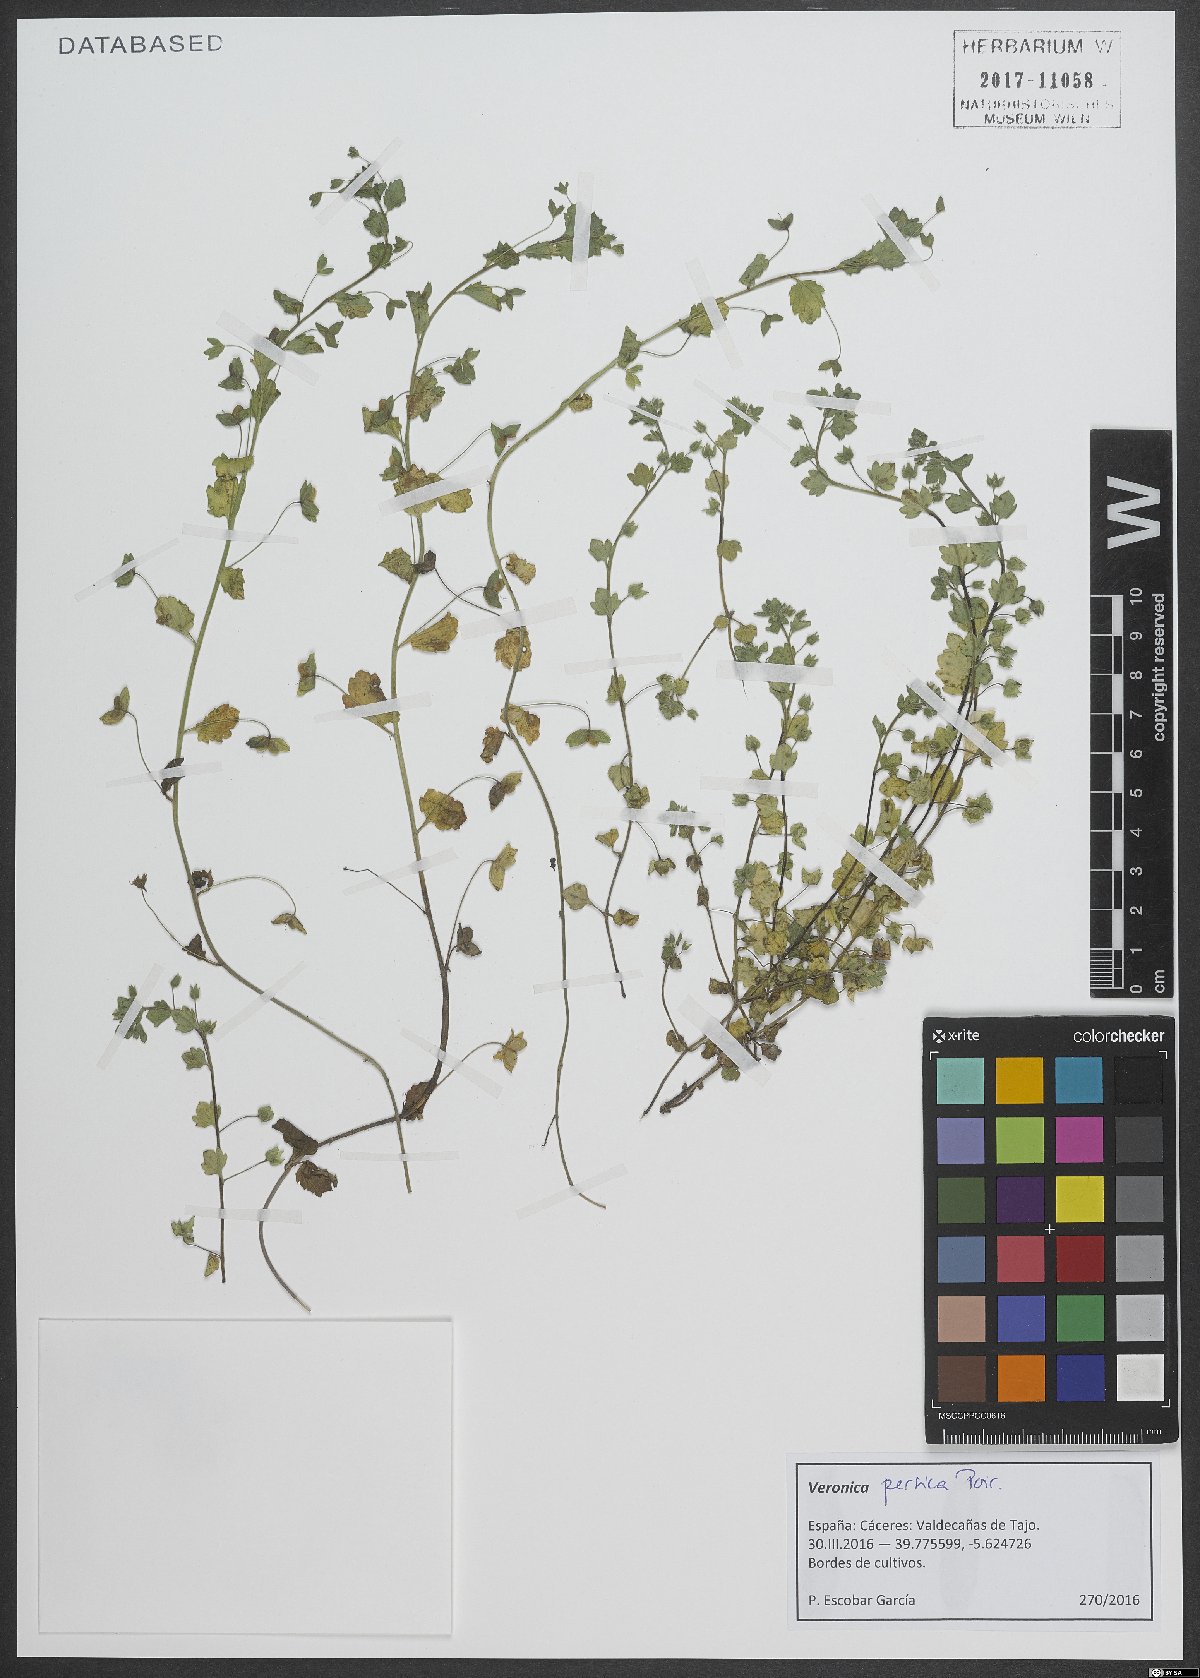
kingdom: Plantae
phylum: Tracheophyta
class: Magnoliopsida
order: Lamiales
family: Plantaginaceae
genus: Veronica
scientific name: Veronica persica
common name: Common field-speedwell
